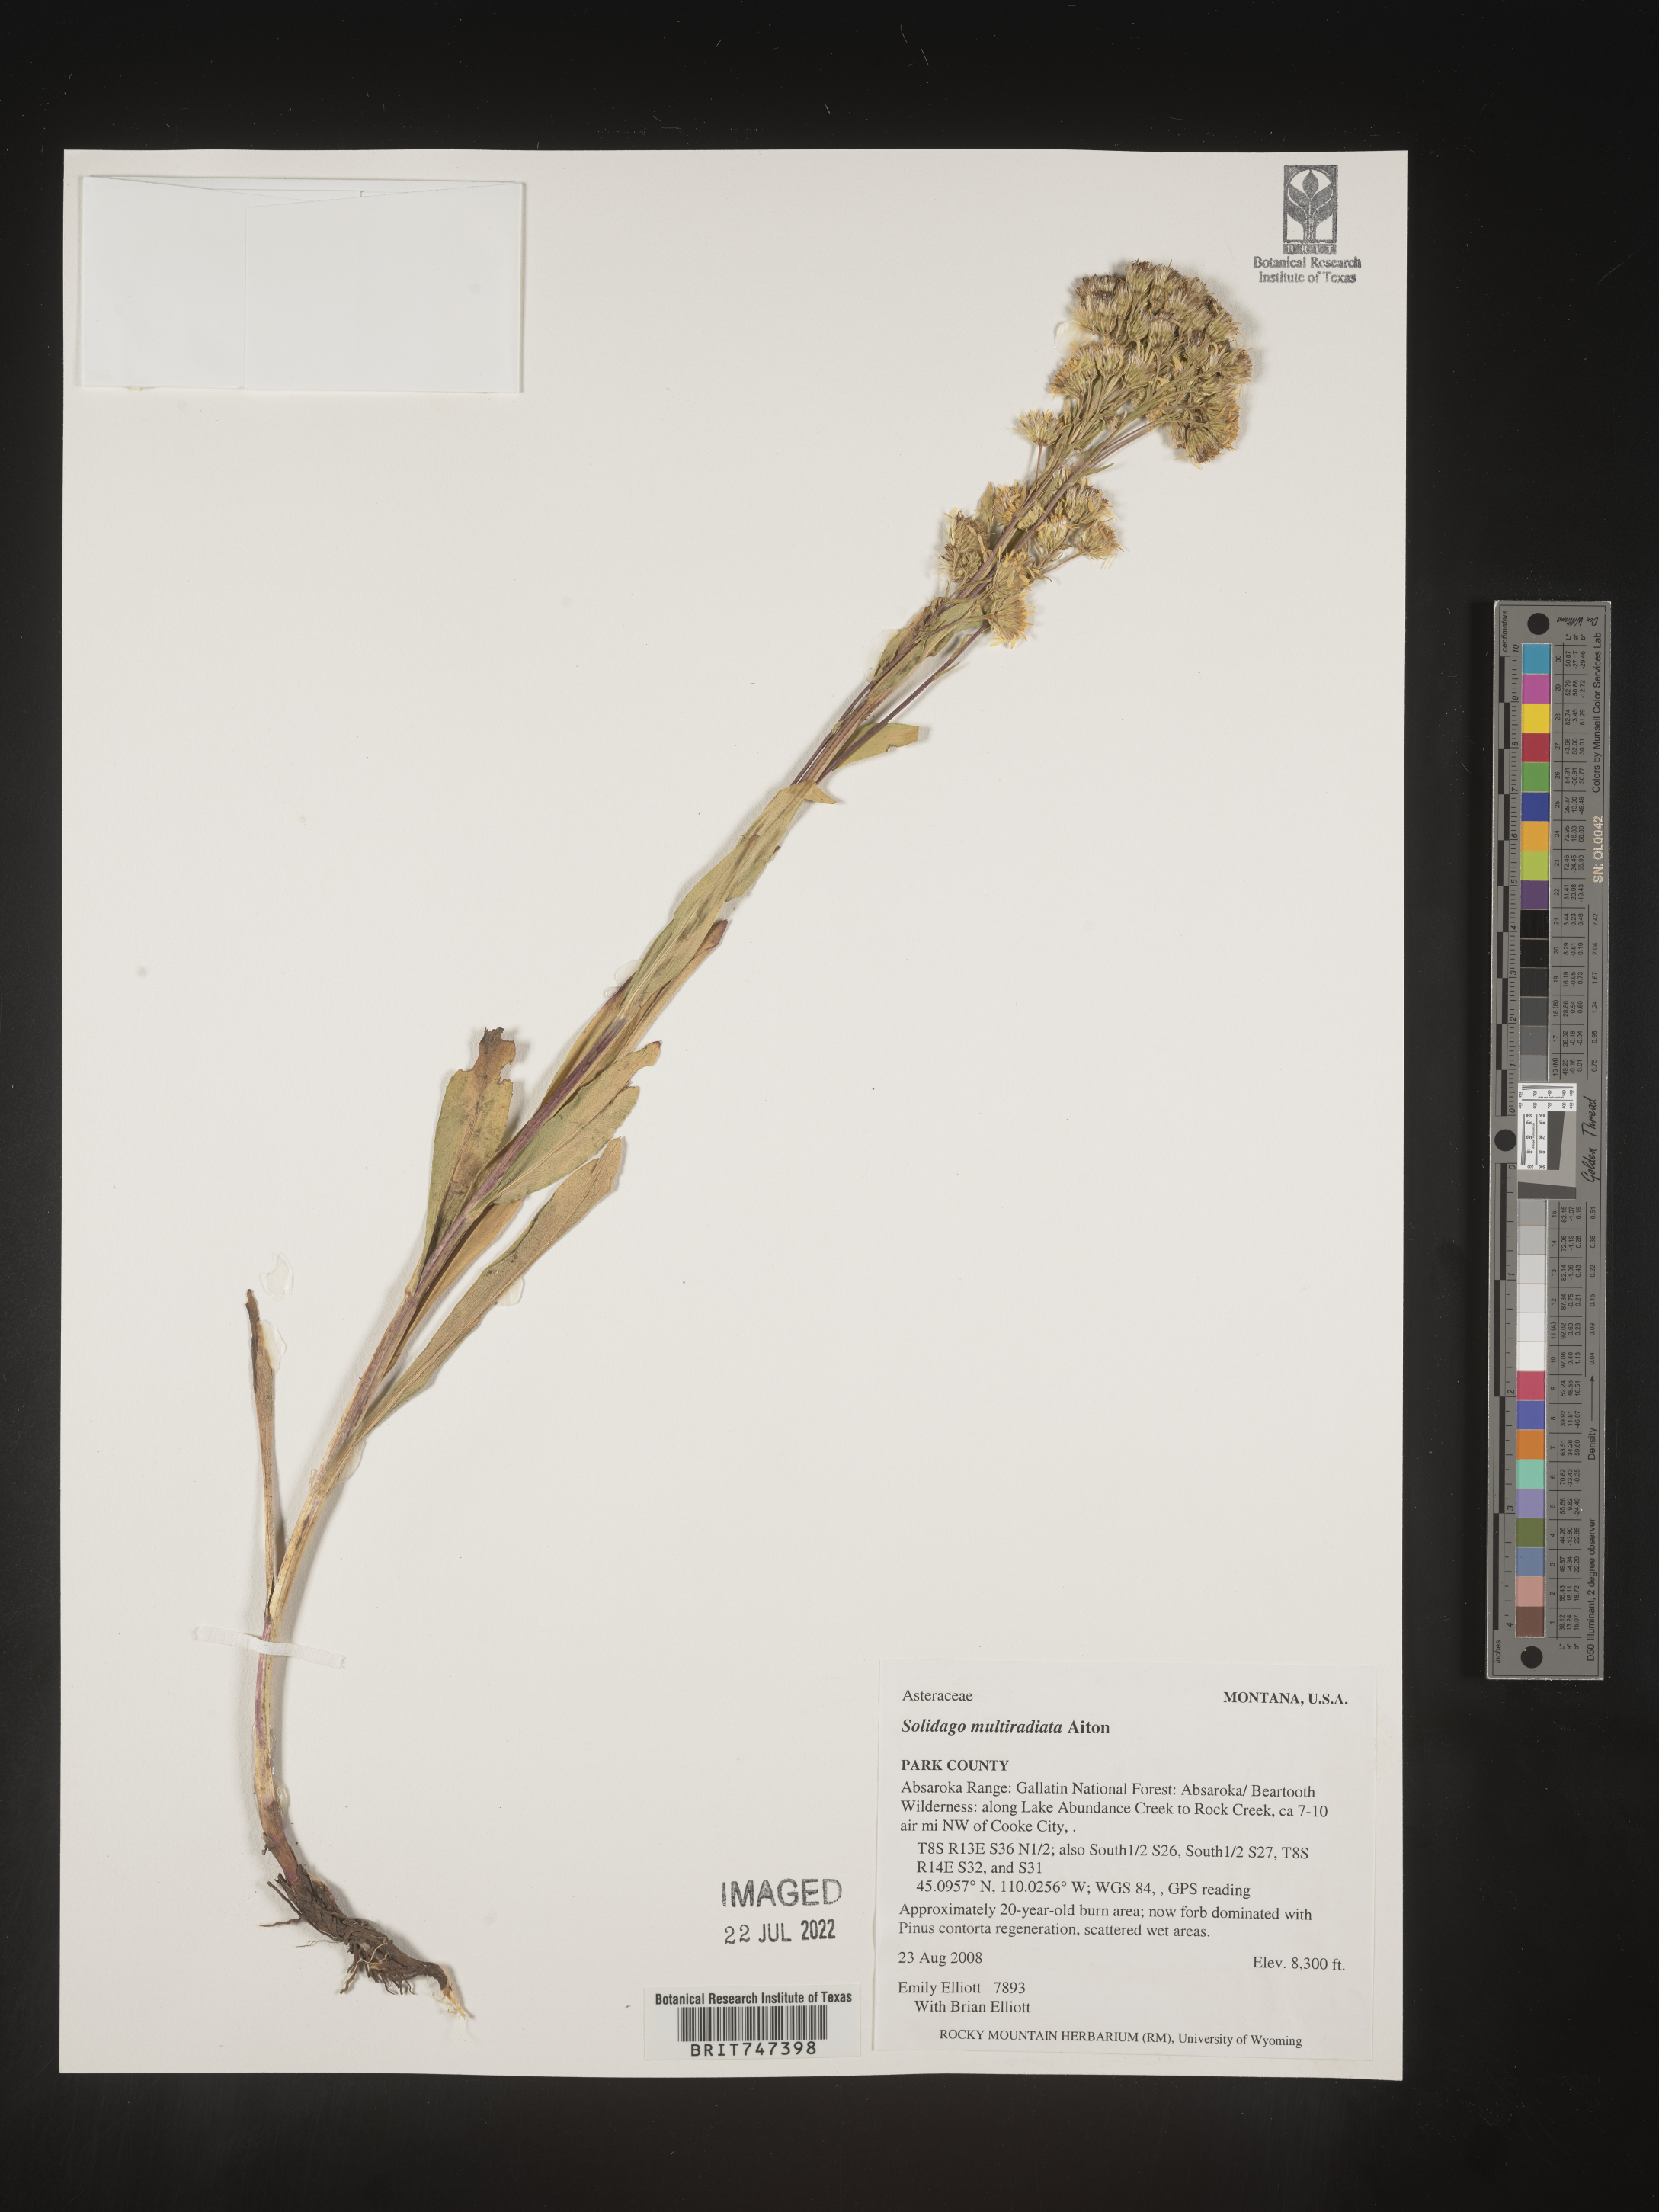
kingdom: Plantae
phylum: Tracheophyta
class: Magnoliopsida
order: Asterales
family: Asteraceae
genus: Solidago
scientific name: Solidago multiradiata
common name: Northern goldenrod
